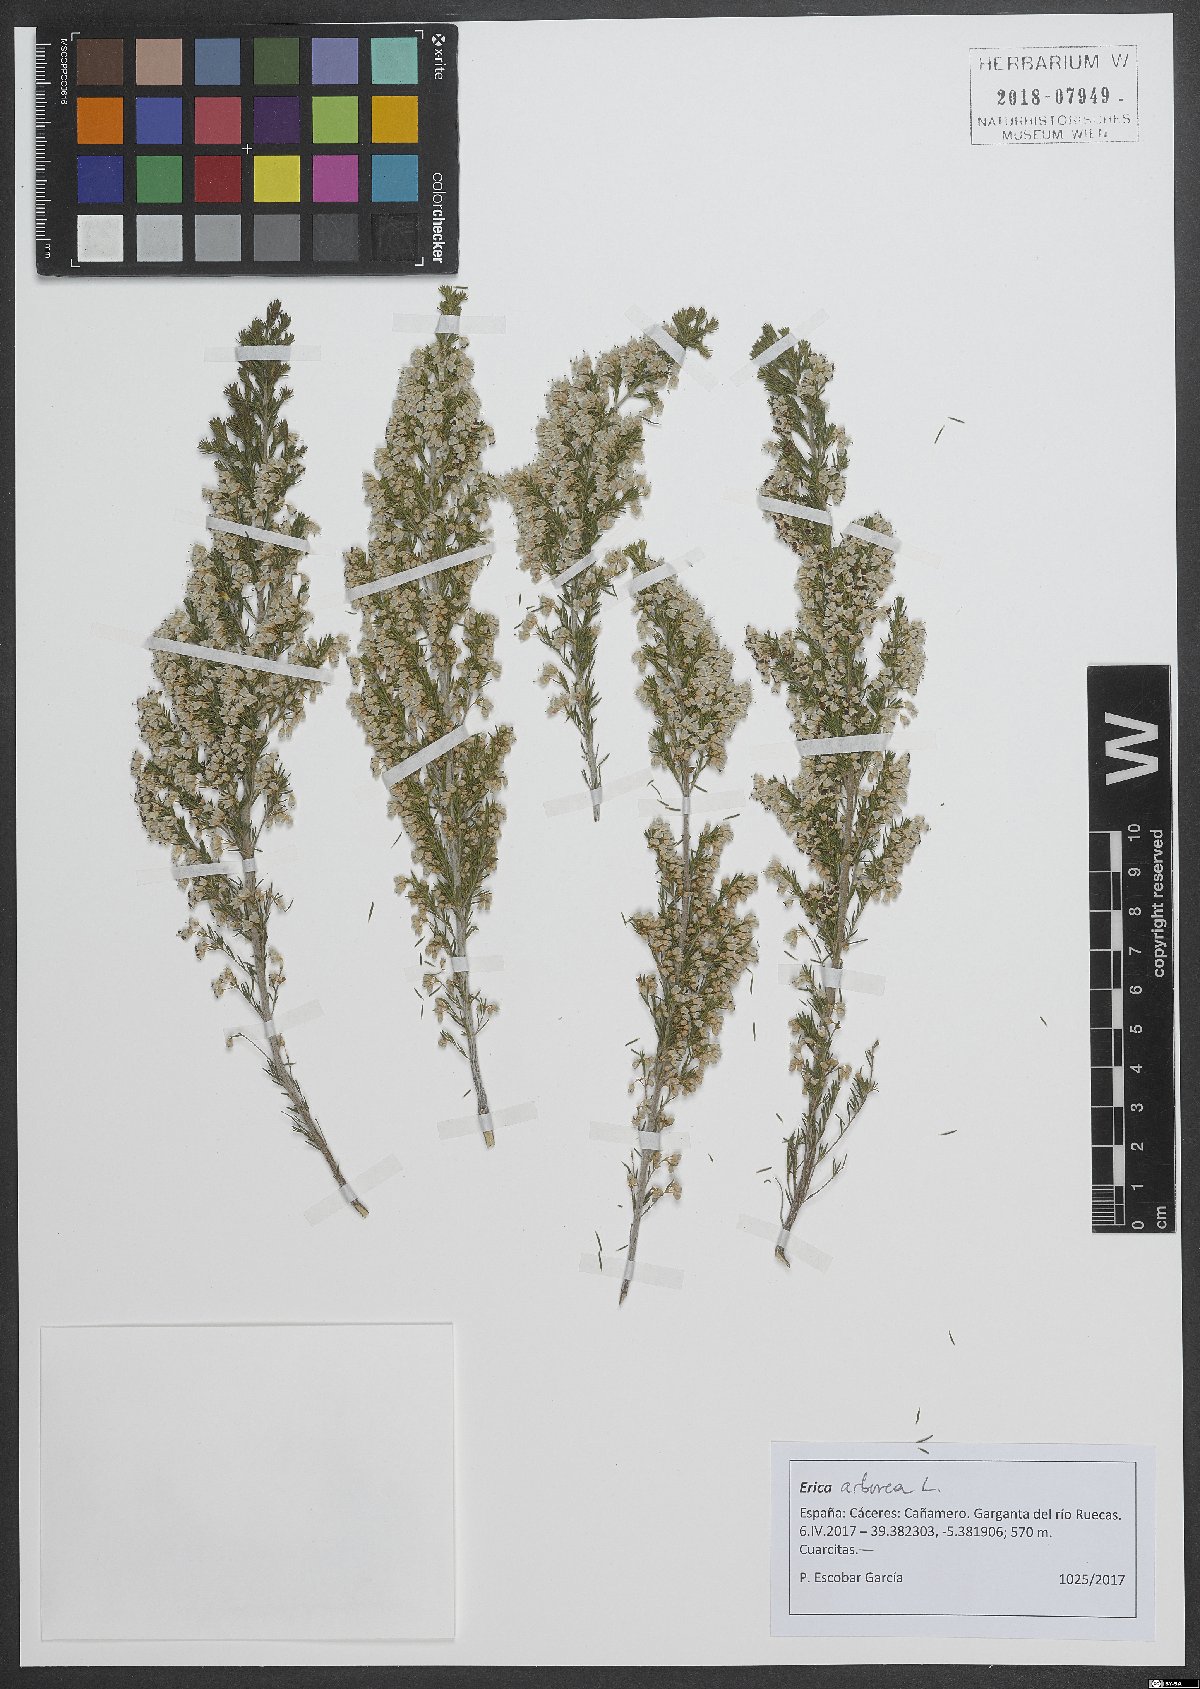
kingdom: Plantae
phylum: Tracheophyta
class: Magnoliopsida
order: Ericales
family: Ericaceae
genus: Erica
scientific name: Erica arborea
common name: Tree heath
